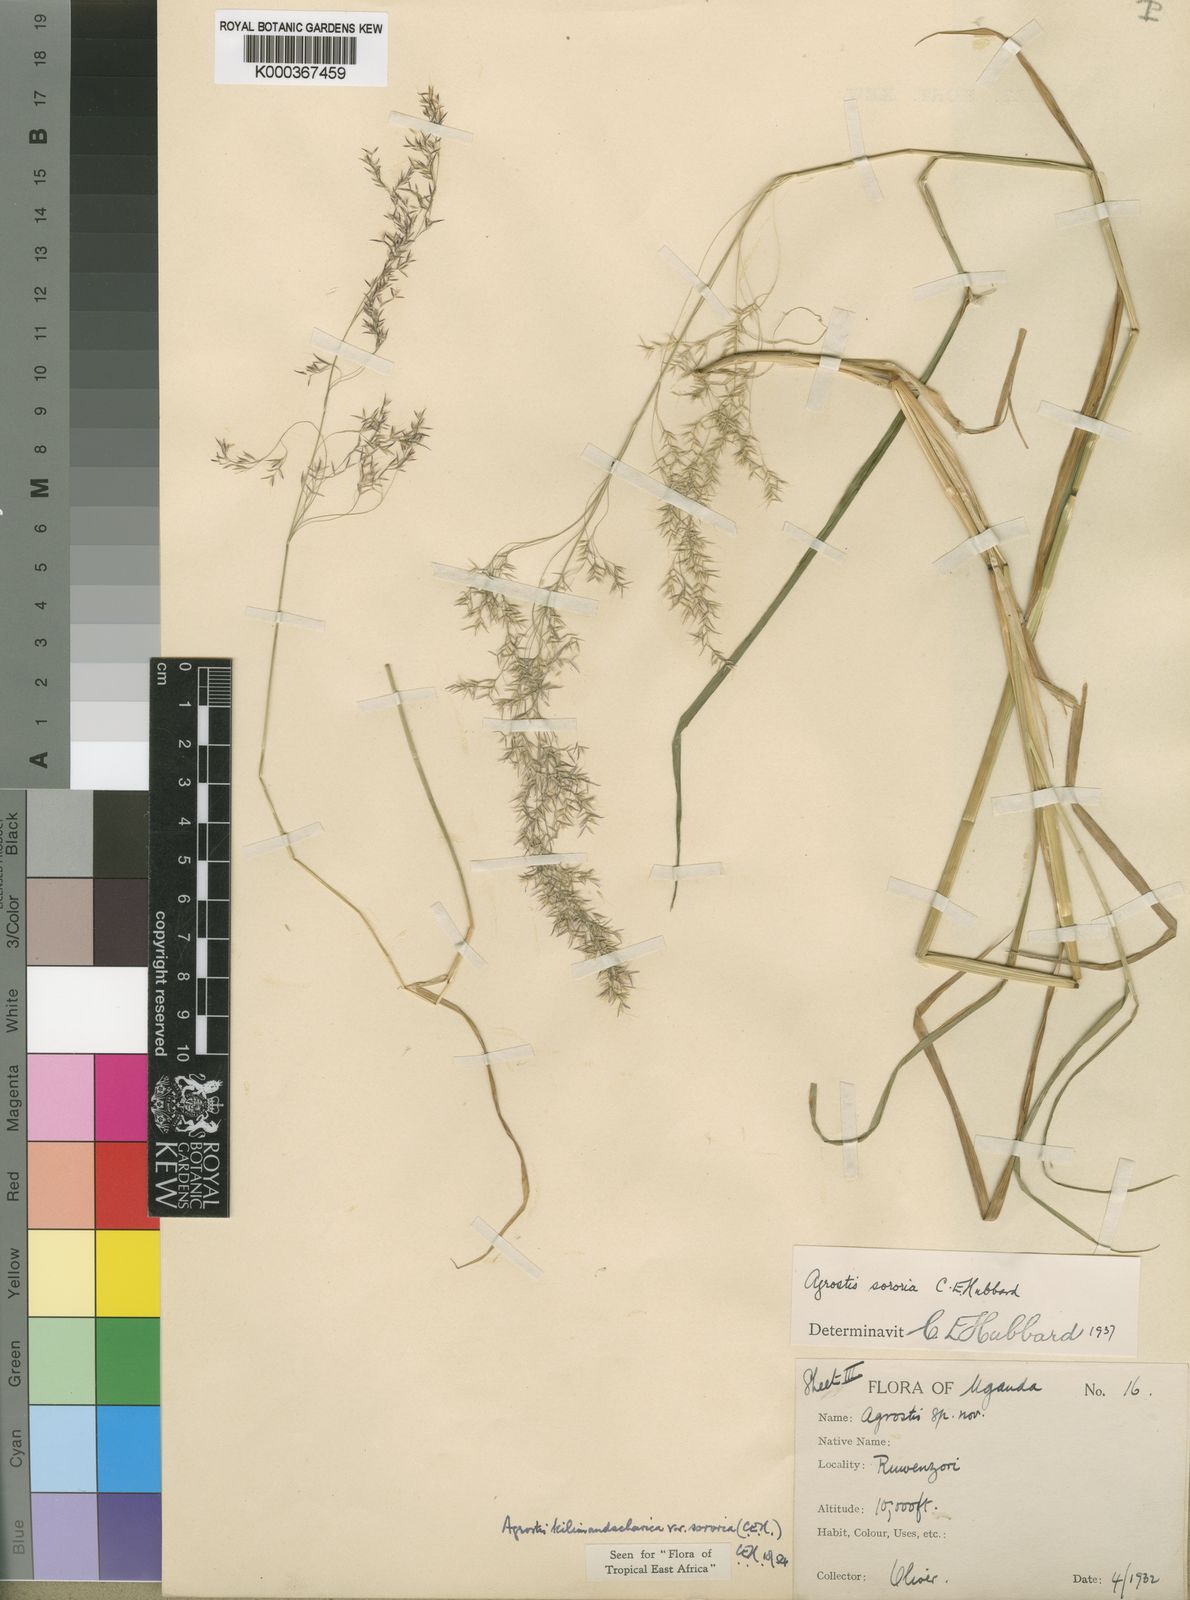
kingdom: Plantae
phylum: Tracheophyta
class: Liliopsida
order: Poales
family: Poaceae
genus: Agrostis
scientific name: Agrostis kilimandscharica
